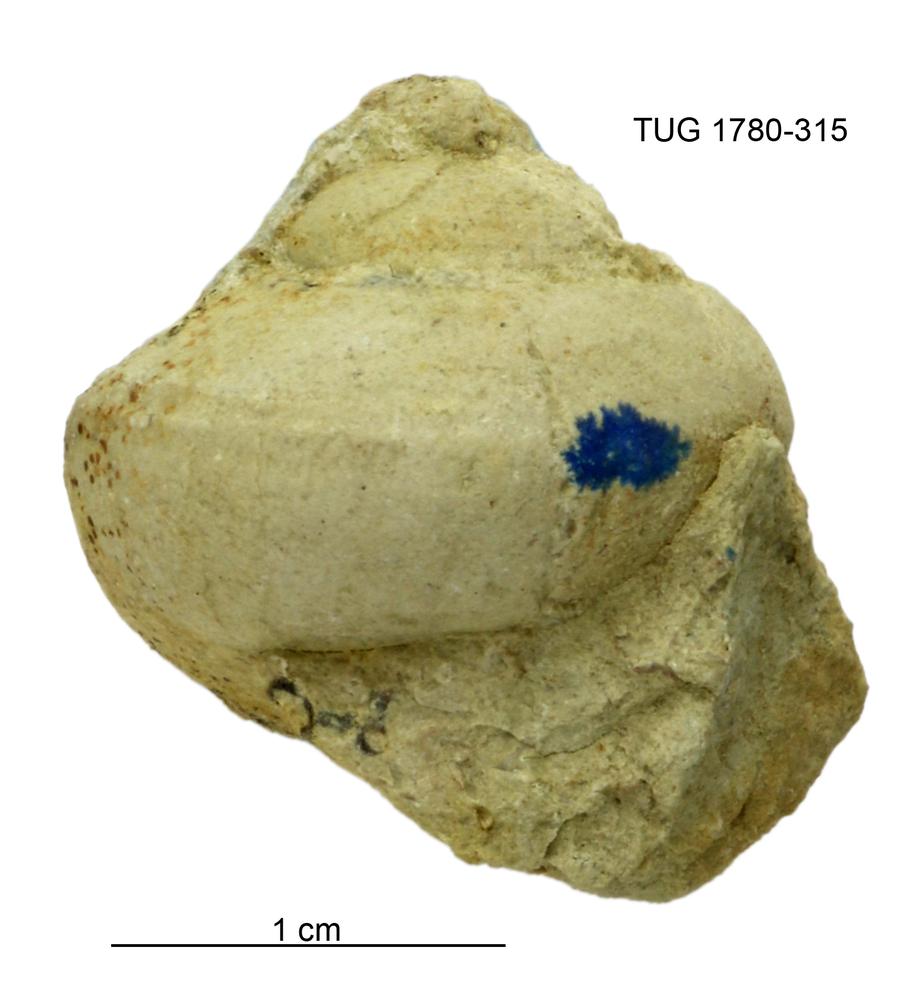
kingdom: Animalia
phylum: Mollusca
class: Gastropoda
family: Lophospiridae
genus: Lophospira
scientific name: Lophospira
